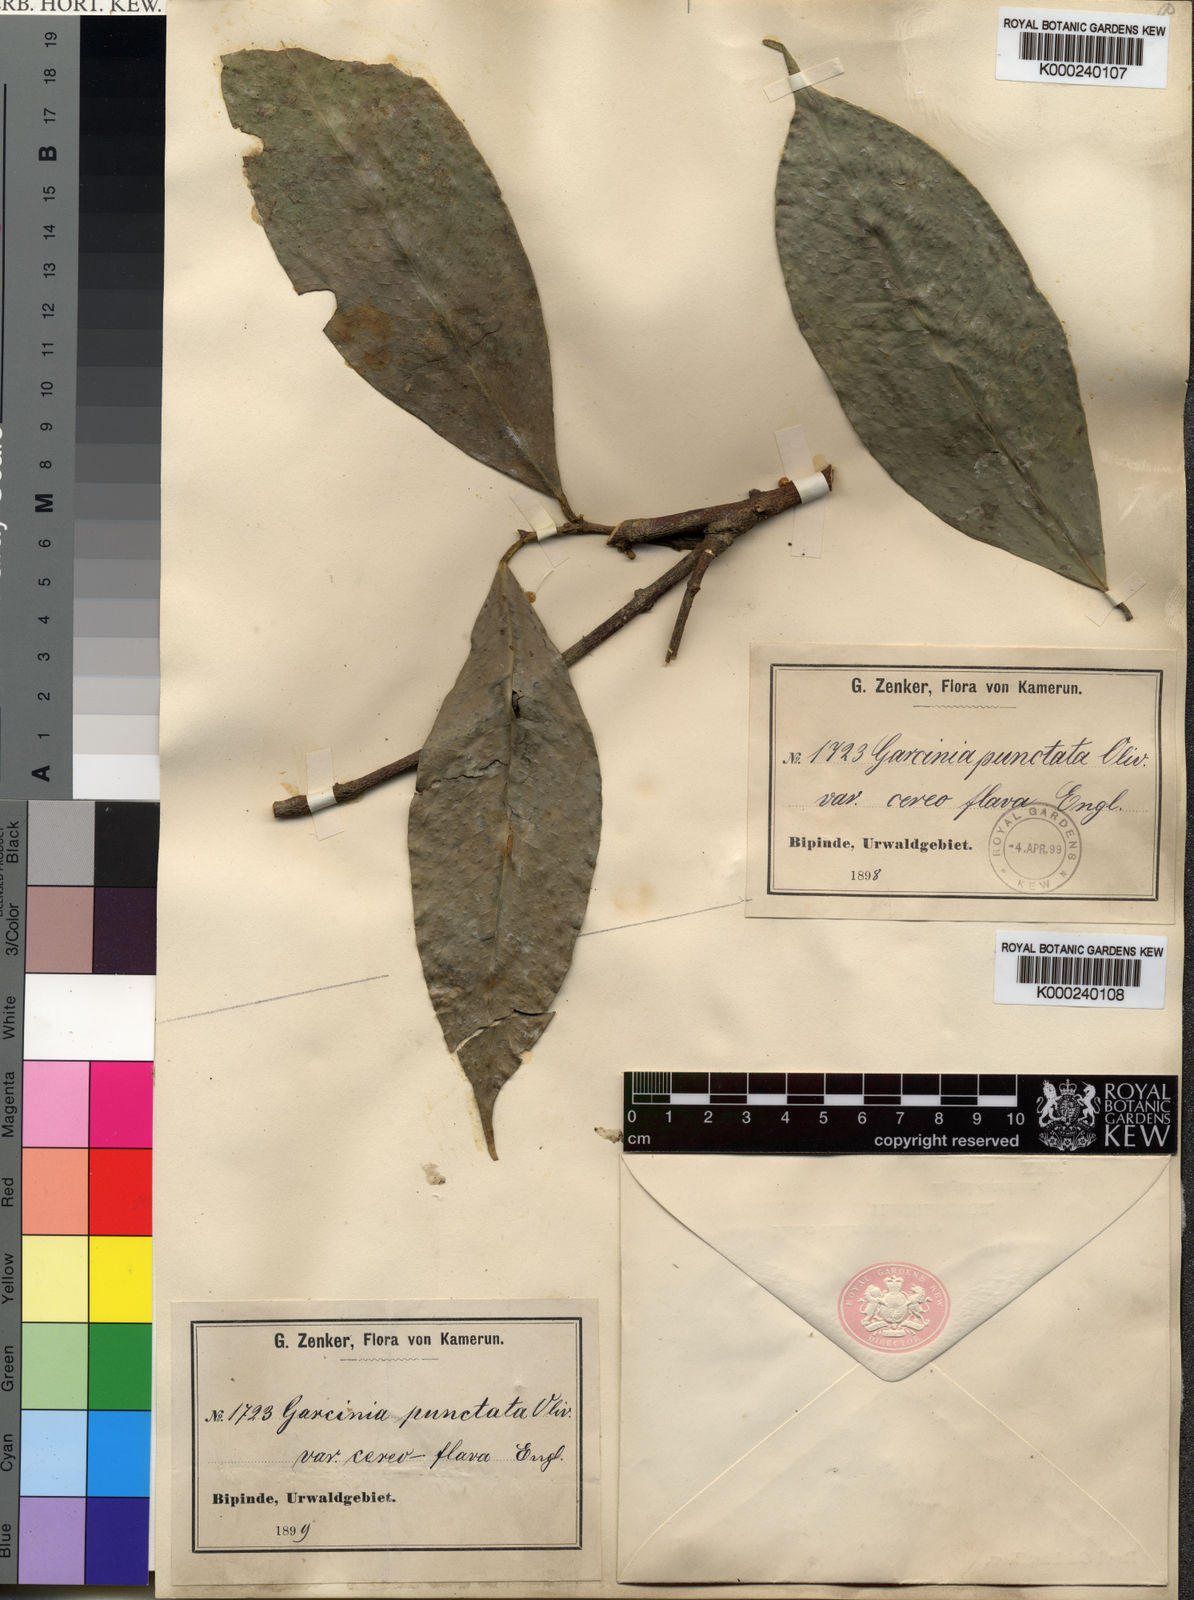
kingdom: Plantae
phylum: Tracheophyta
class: Magnoliopsida
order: Malpighiales
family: Clusiaceae
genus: Garcinia
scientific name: Garcinia epunctata
